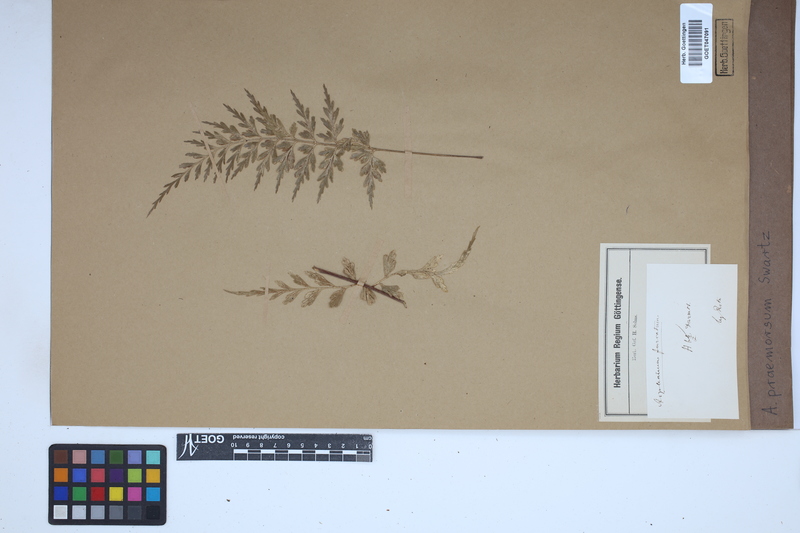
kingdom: Plantae
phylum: Tracheophyta
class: Polypodiopsida
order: Polypodiales
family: Aspleniaceae
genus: Asplenium
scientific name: Asplenium praemorsum
